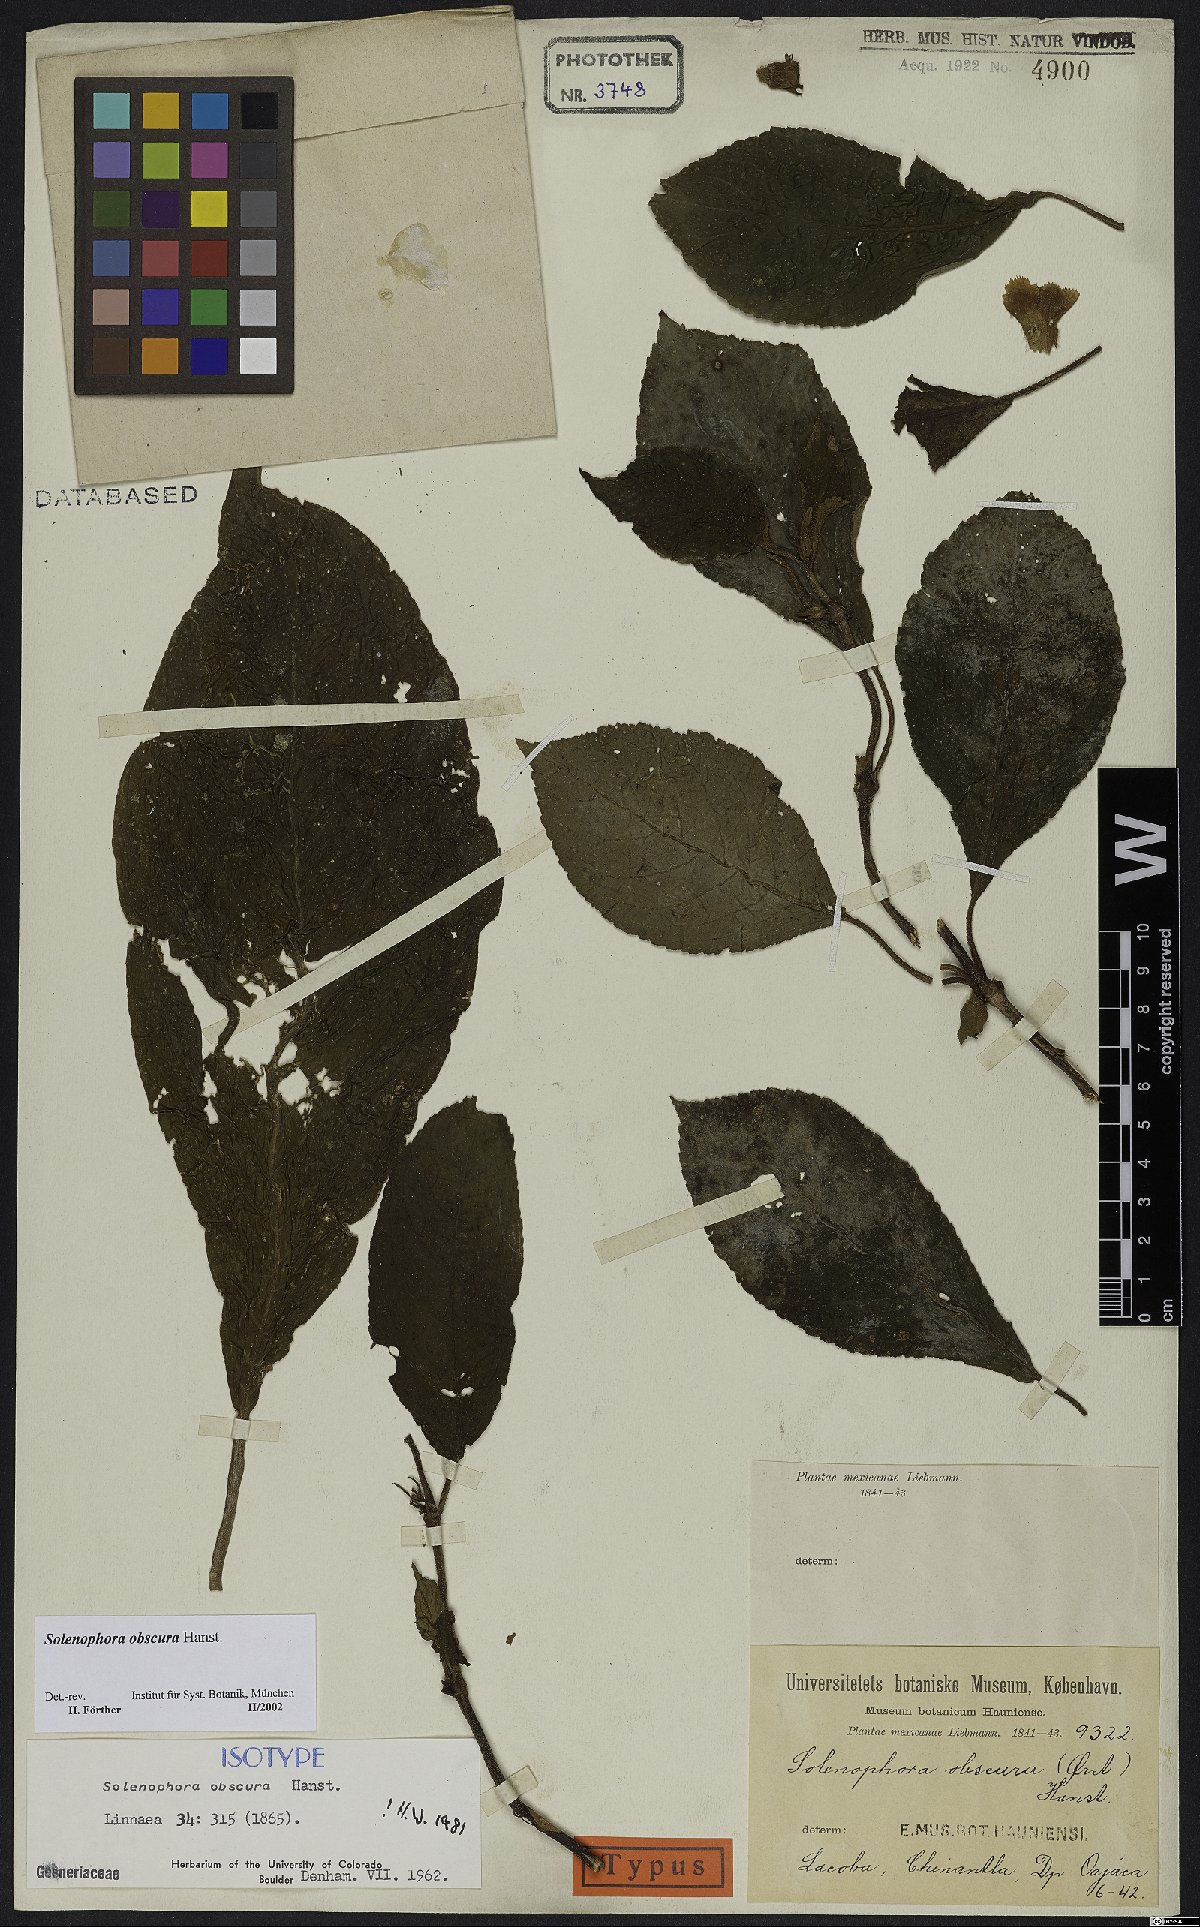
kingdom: Plantae
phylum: Tracheophyta
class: Magnoliopsida
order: Lamiales
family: Gesneriaceae
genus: Solenophora
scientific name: Solenophora obscura
